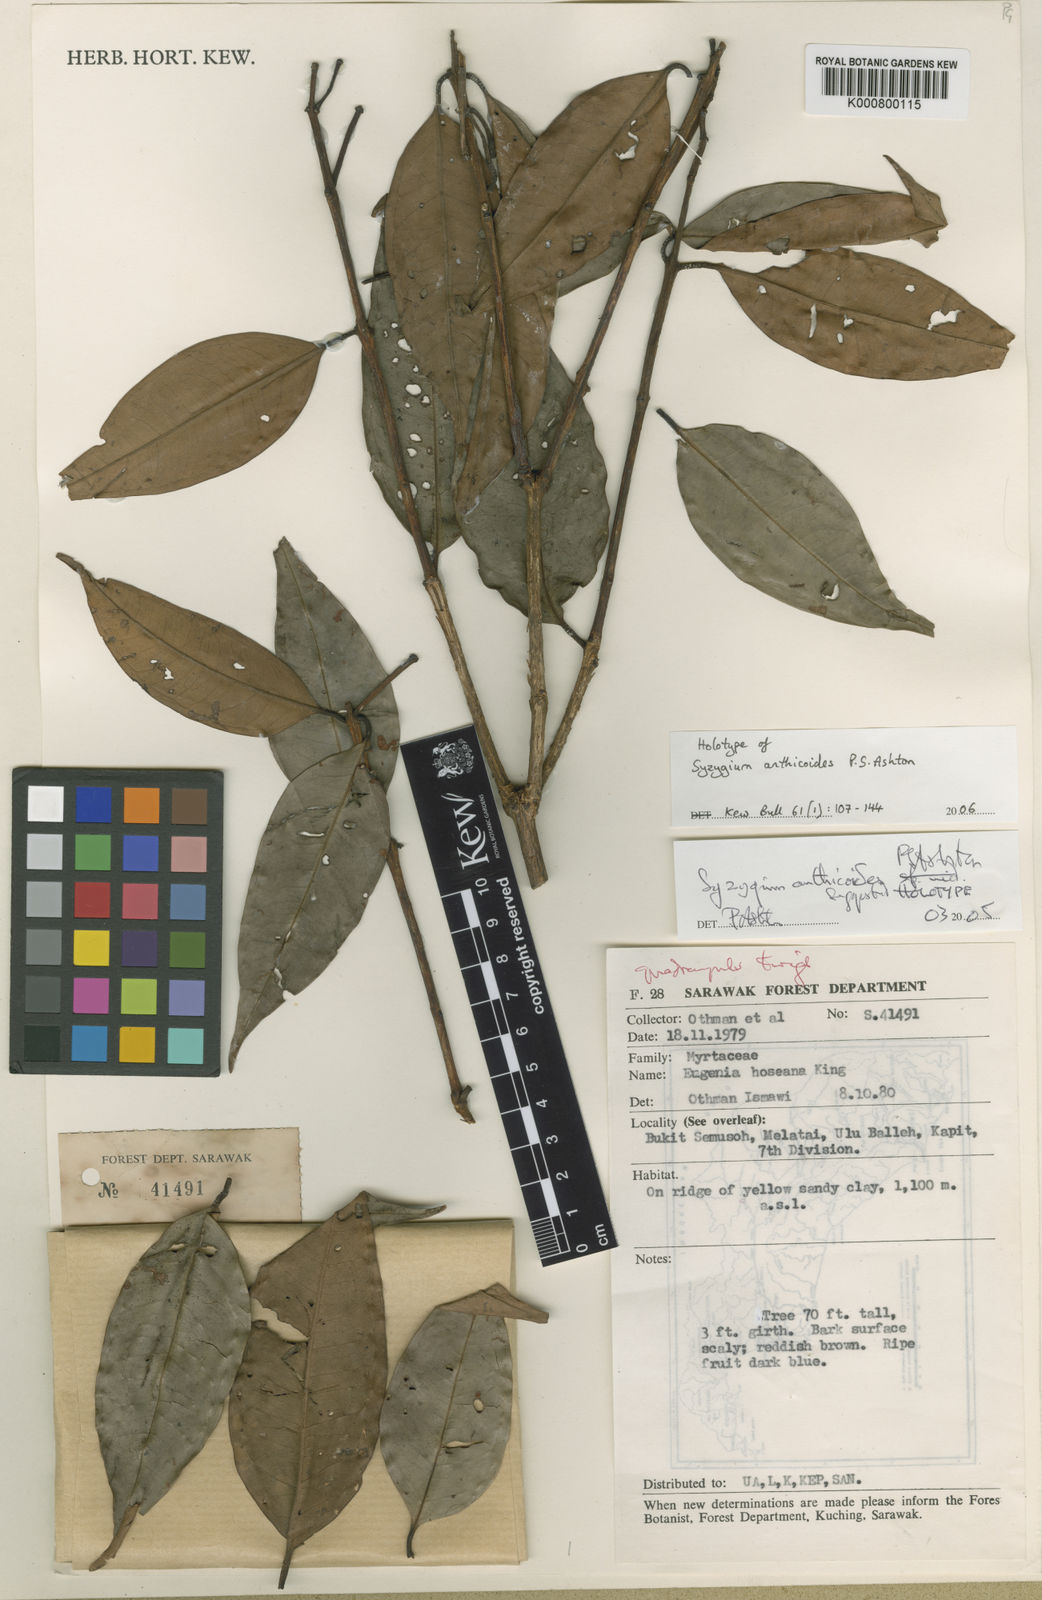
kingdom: Plantae
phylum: Tracheophyta
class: Magnoliopsida
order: Myrtales
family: Myrtaceae
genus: Syzygium
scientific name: Syzygium anthicoides
